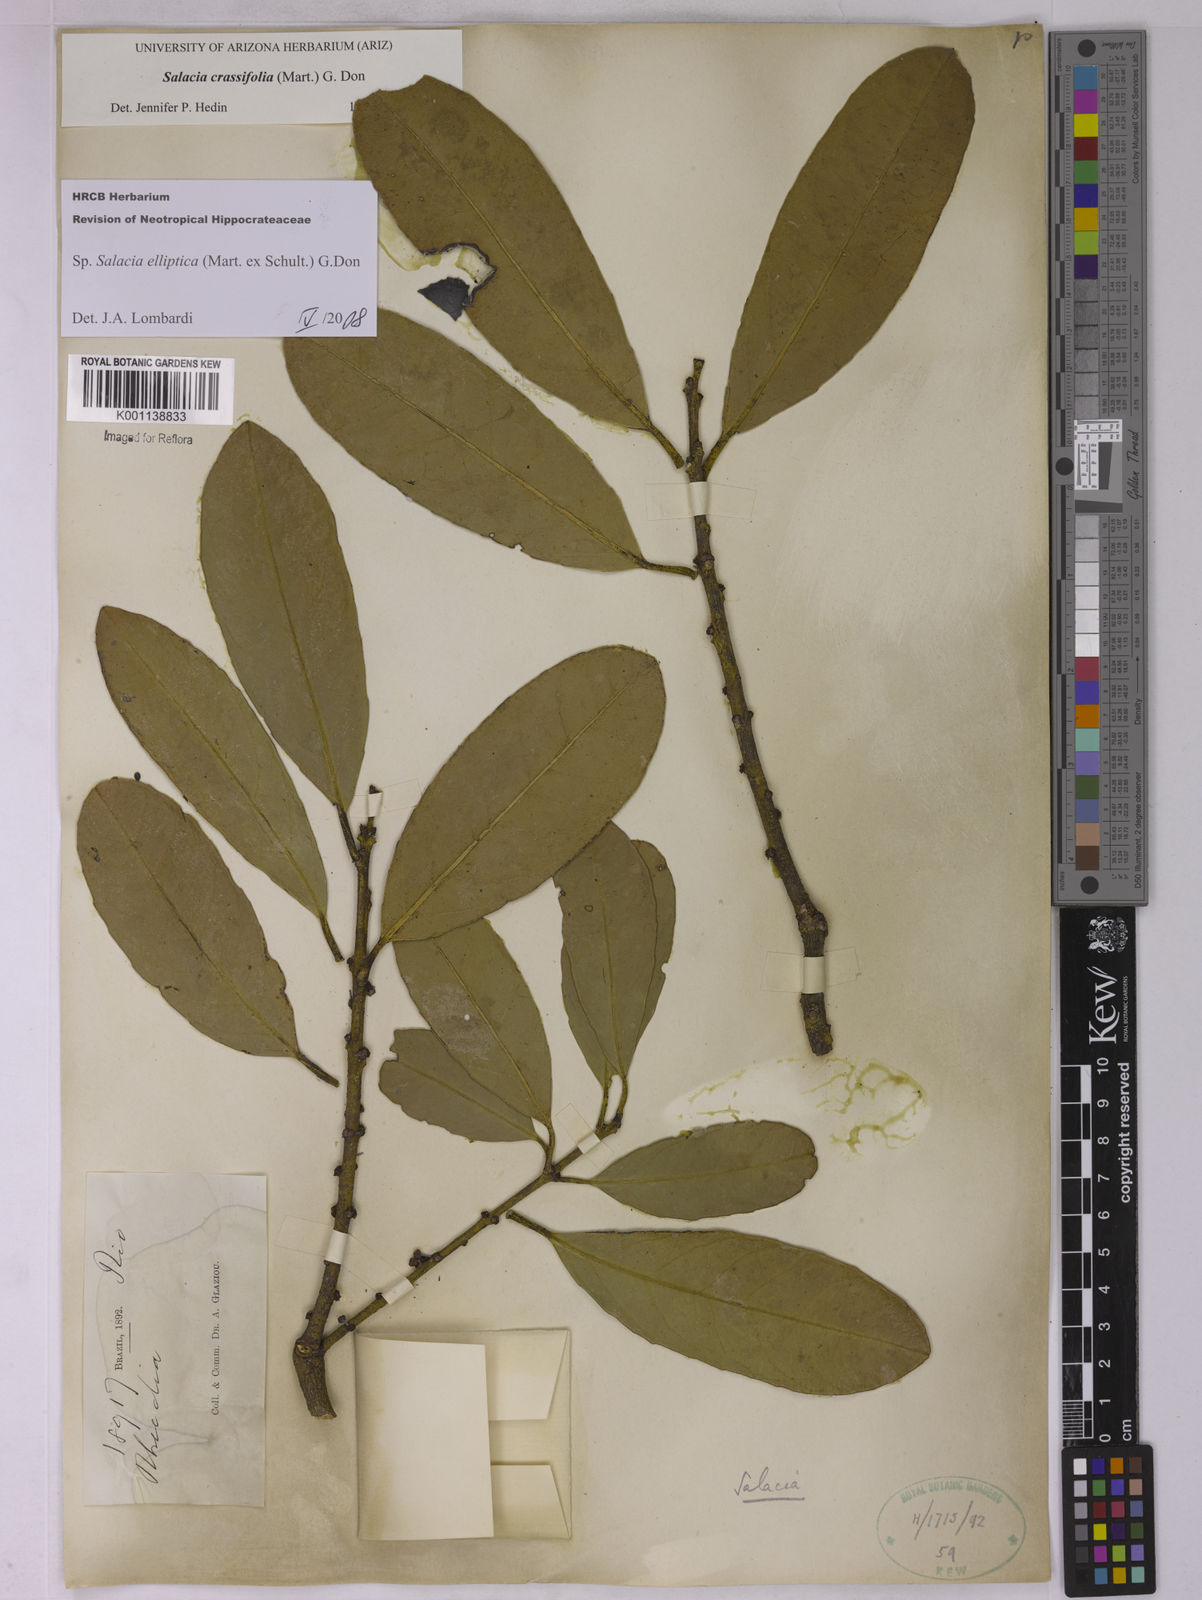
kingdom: Plantae
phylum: Tracheophyta
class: Magnoliopsida
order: Celastrales
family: Celastraceae
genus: Salacia
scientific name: Salacia elliptica
